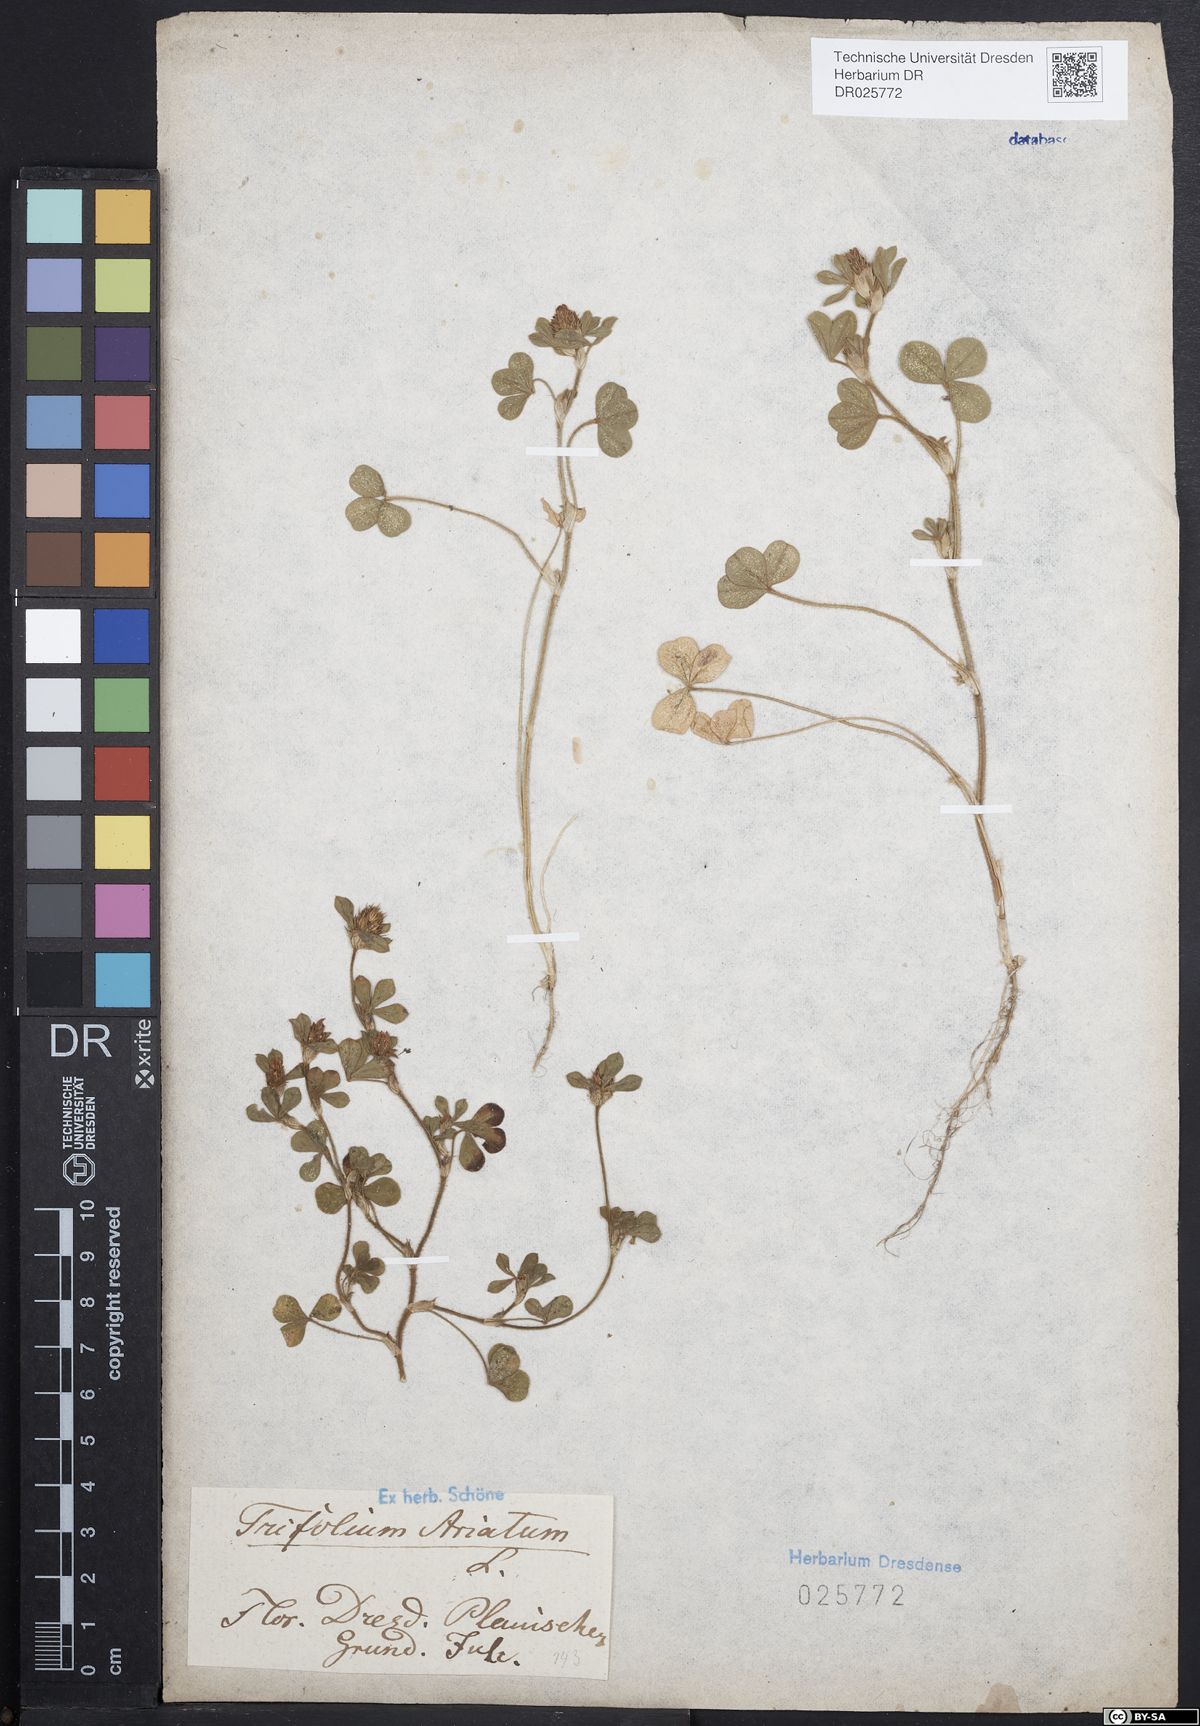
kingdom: Plantae
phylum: Tracheophyta
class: Magnoliopsida
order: Fabales
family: Fabaceae
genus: Trifolium
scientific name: Trifolium striatum
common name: Knotted clover
